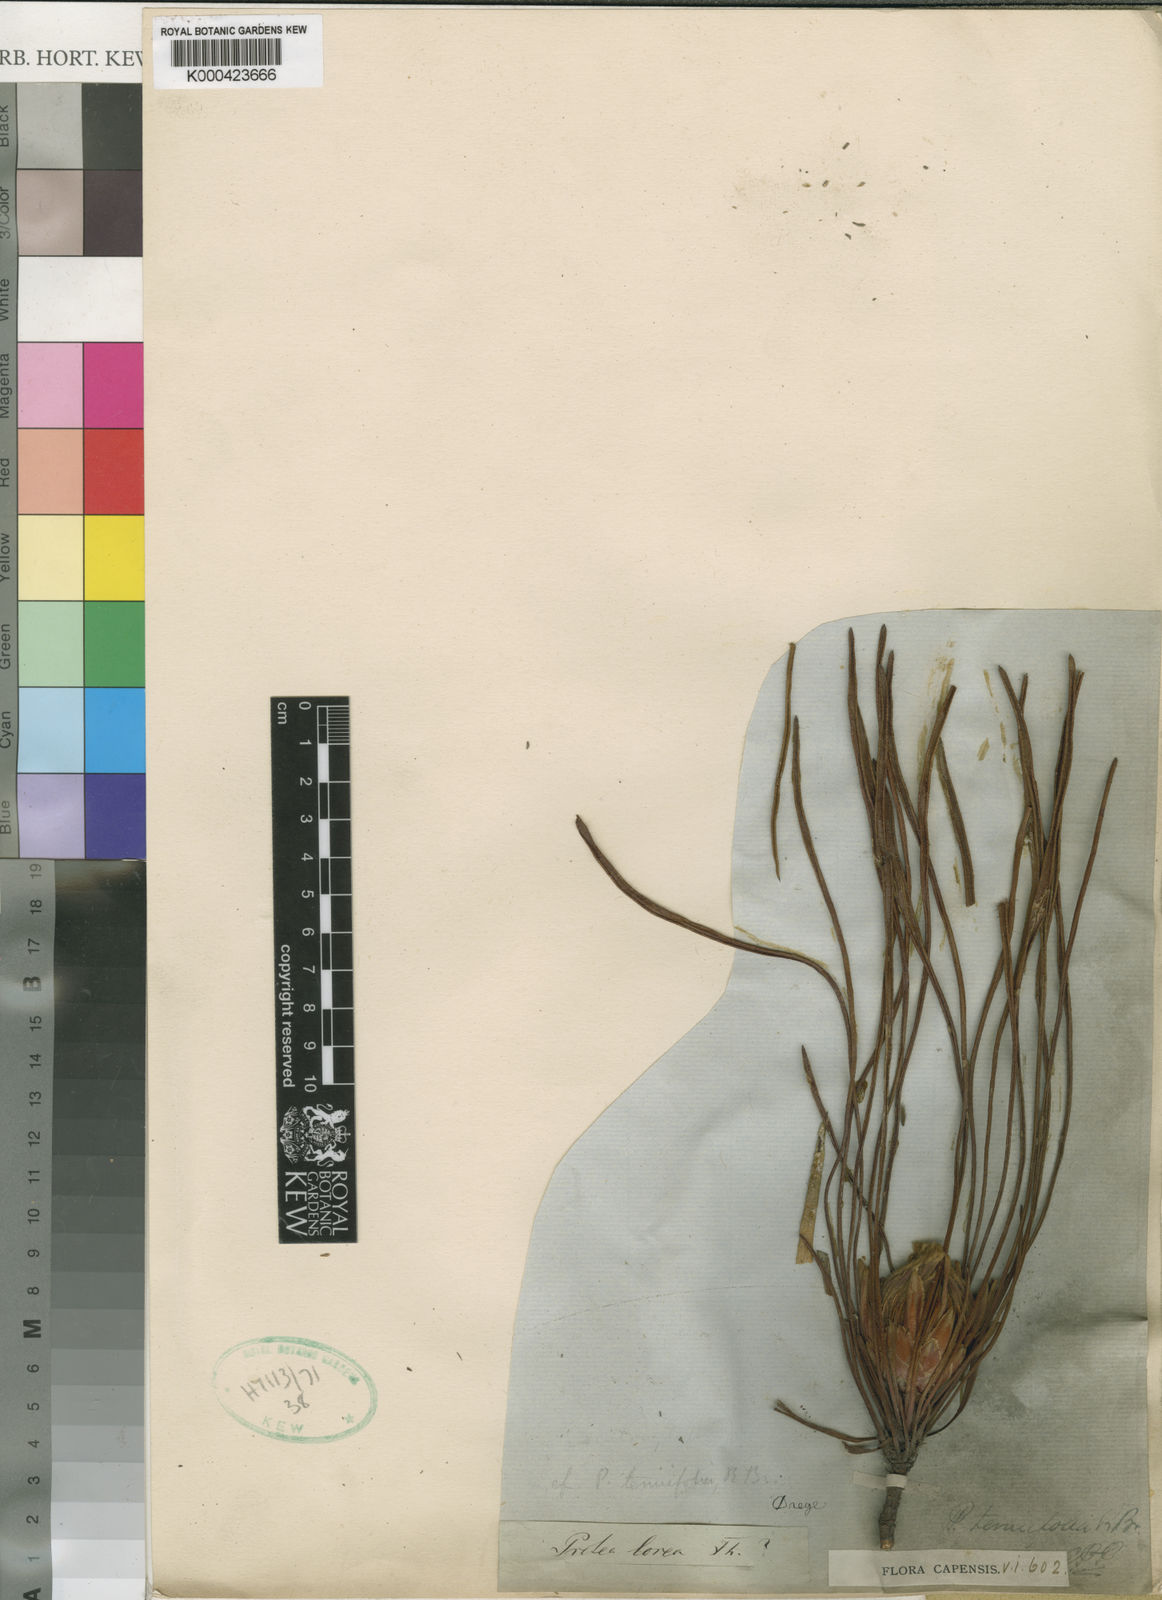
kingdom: Plantae
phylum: Tracheophyta
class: Magnoliopsida
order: Proteales
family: Proteaceae
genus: Protea
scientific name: Protea scabra
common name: Sandpaper-leaf sugarbush
